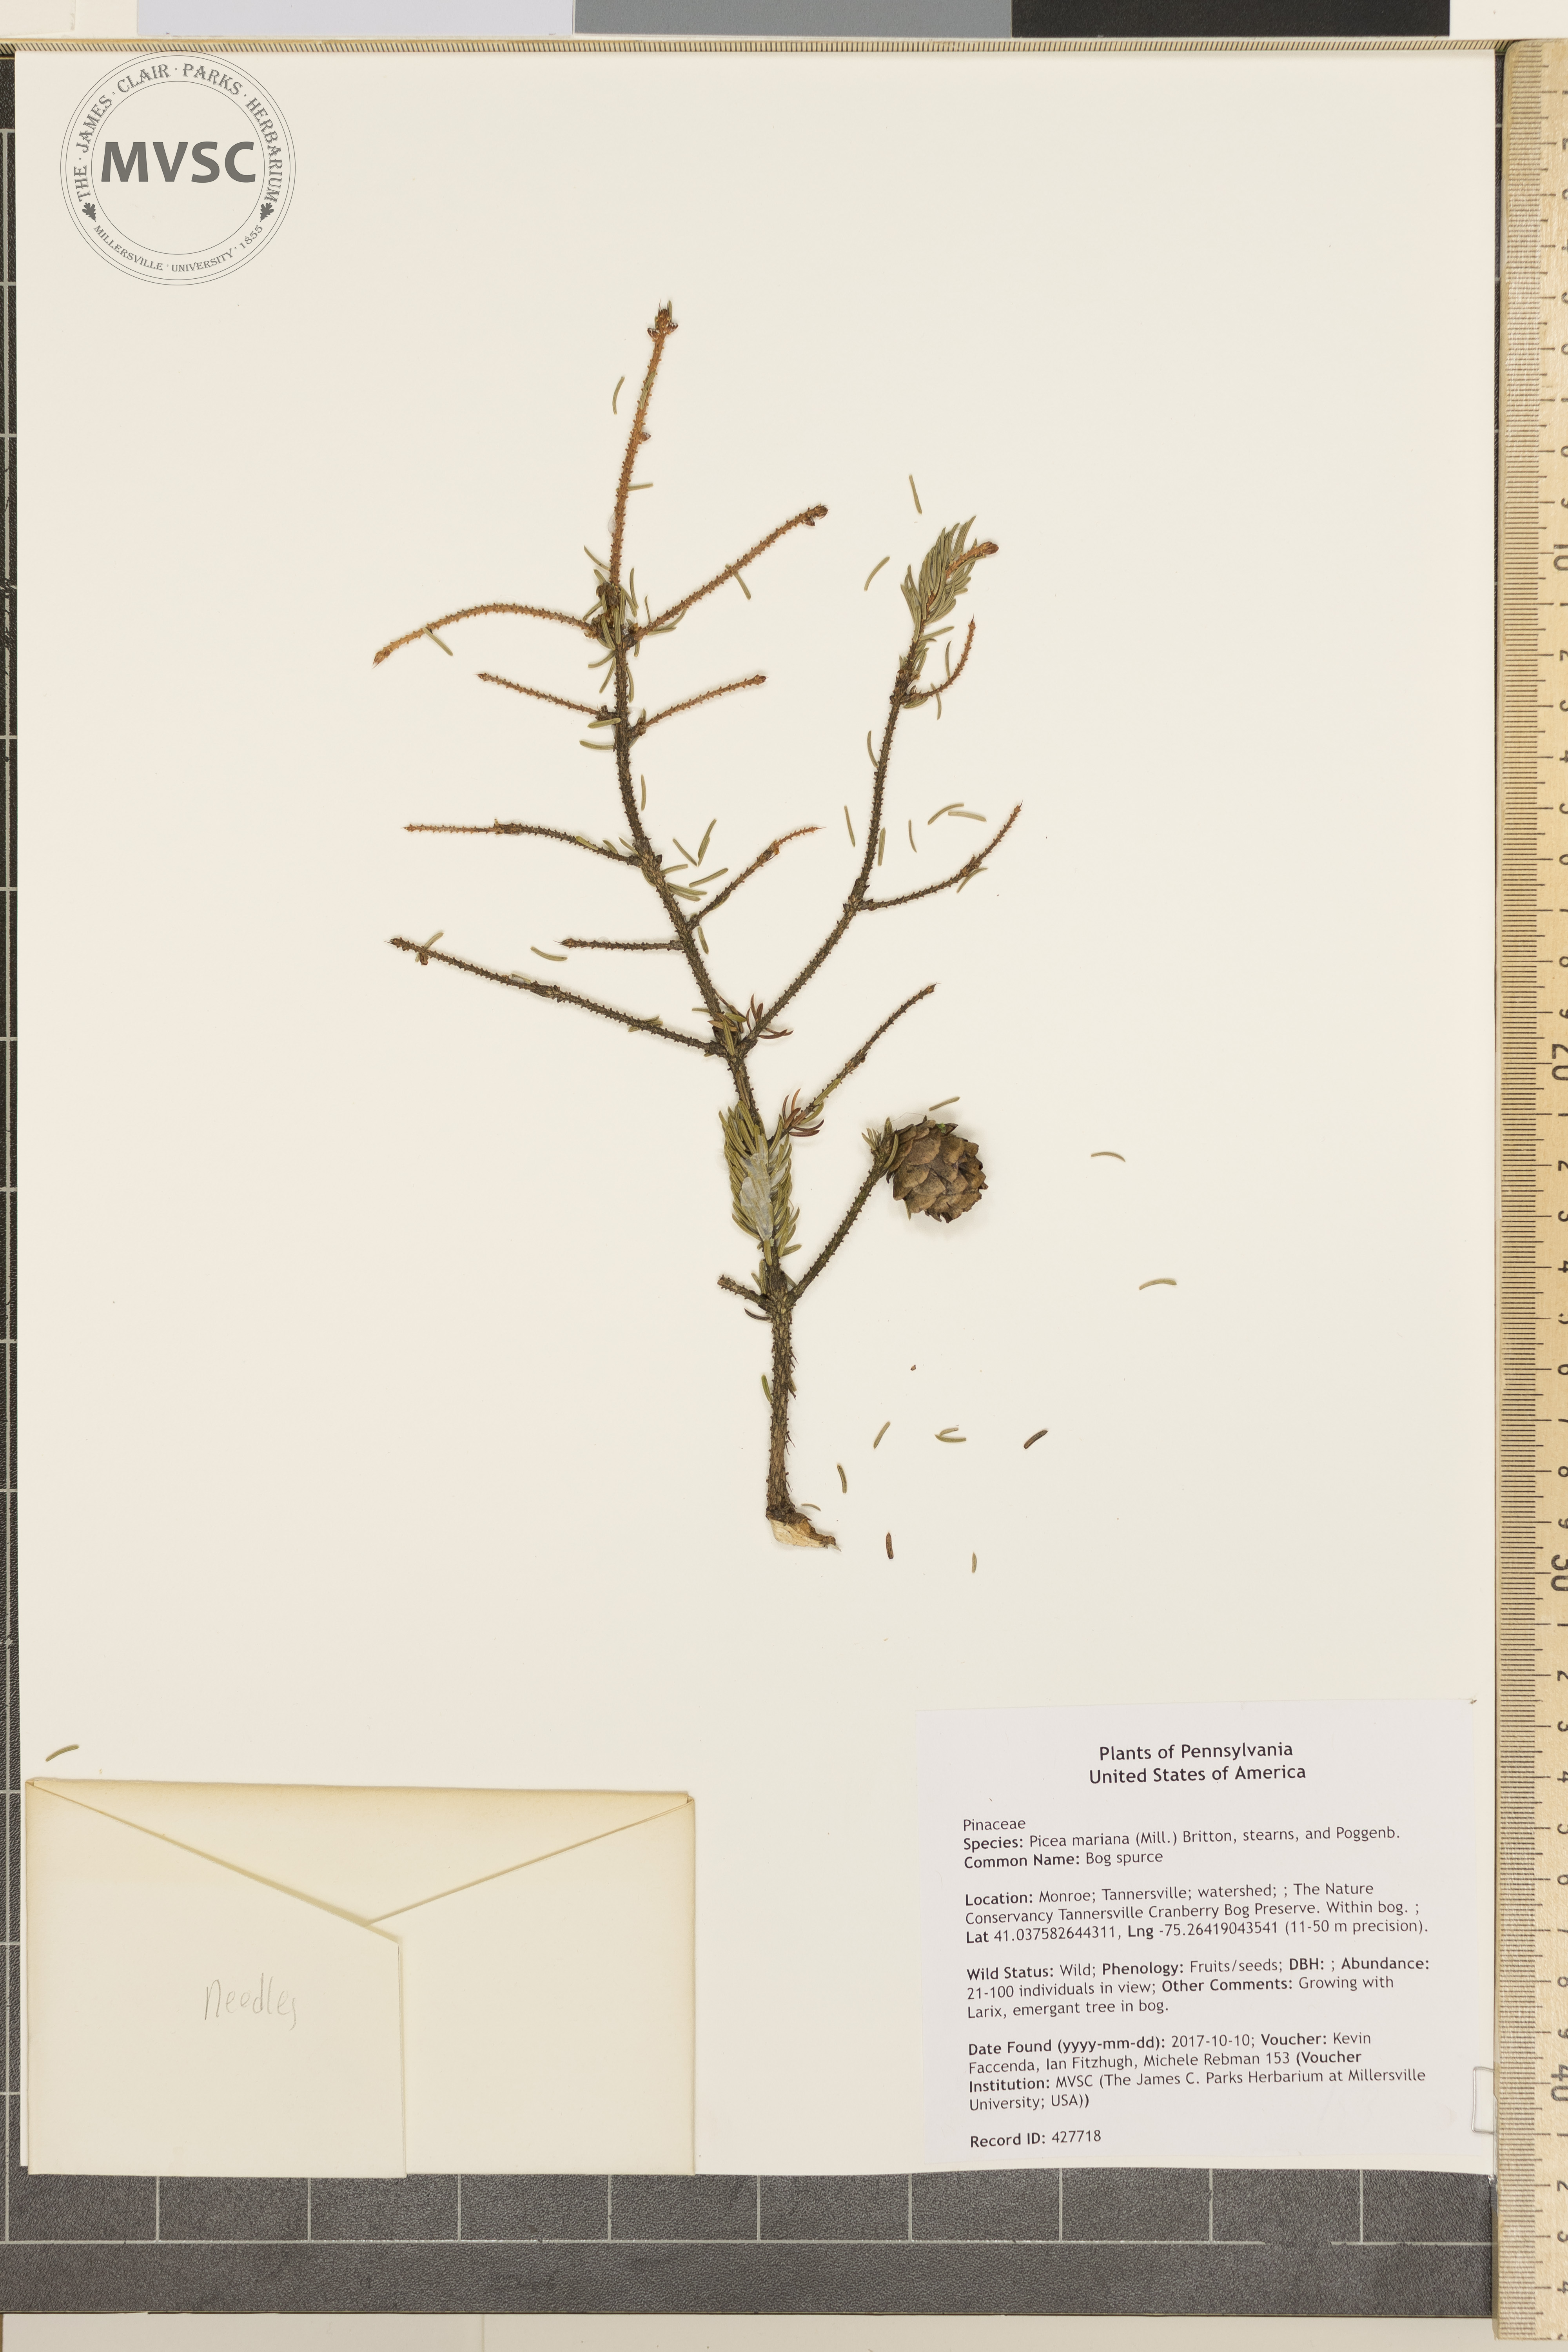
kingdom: Plantae
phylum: Tracheophyta
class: Pinopsida
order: Pinales
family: Pinaceae
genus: Picea
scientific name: Picea mariana
